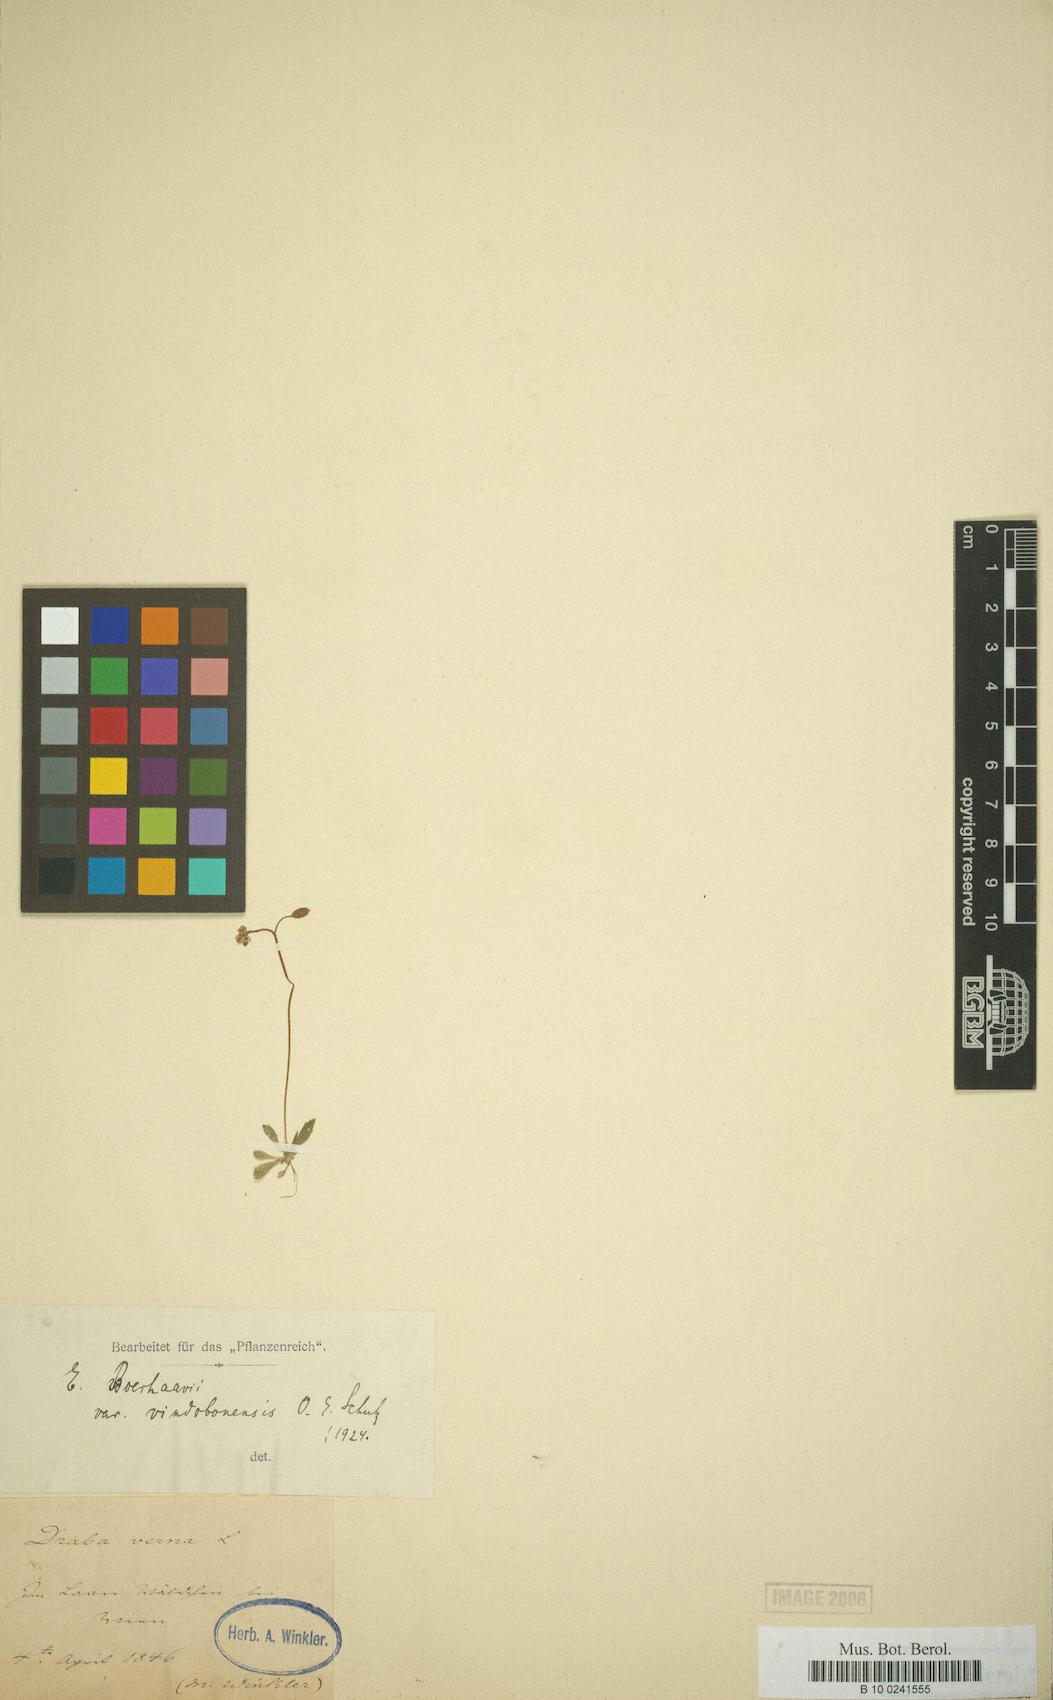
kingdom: Plantae
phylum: Tracheophyta
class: Magnoliopsida
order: Brassicales
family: Brassicaceae
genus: Draba
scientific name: Draba verna
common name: Spring draba
